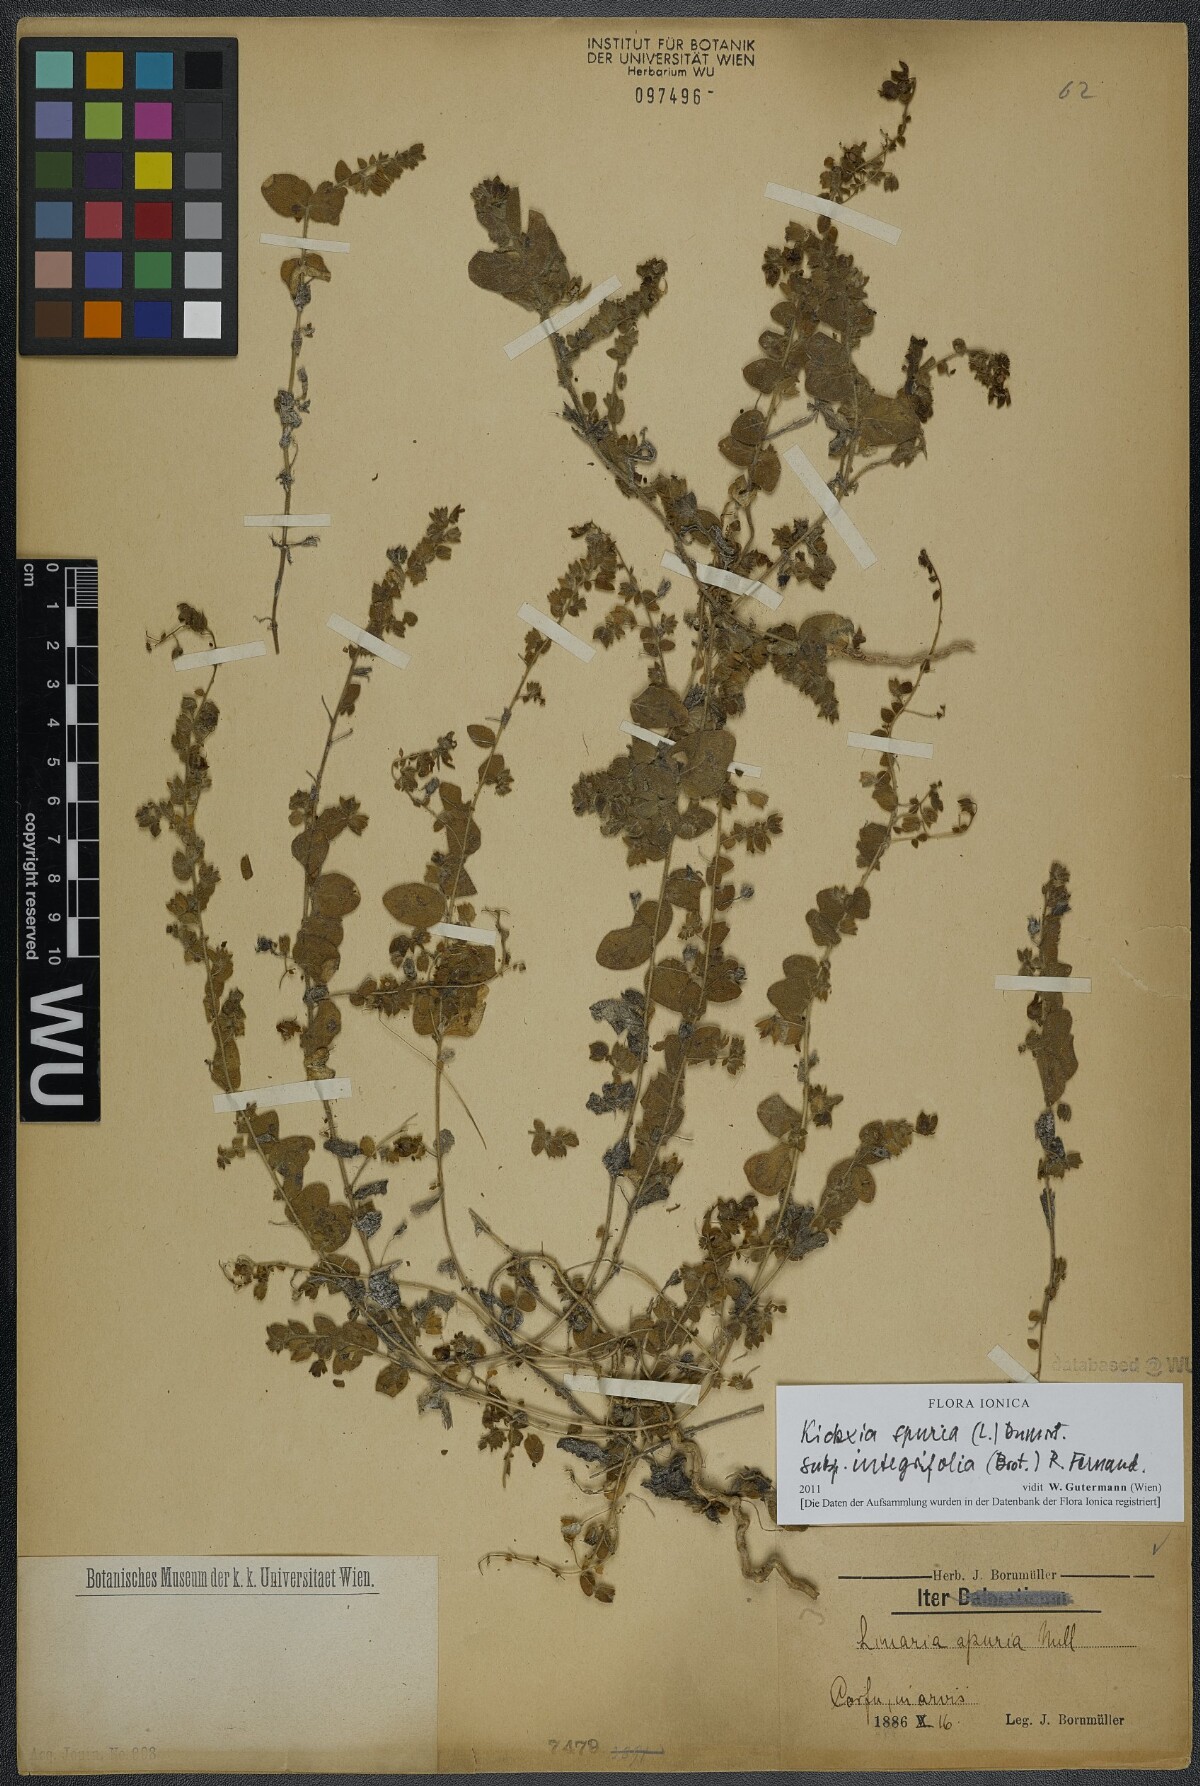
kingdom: Plantae
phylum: Tracheophyta
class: Magnoliopsida
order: Lamiales
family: Plantaginaceae
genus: Kickxia
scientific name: Kickxia spuria
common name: Round-leaved fluellen
